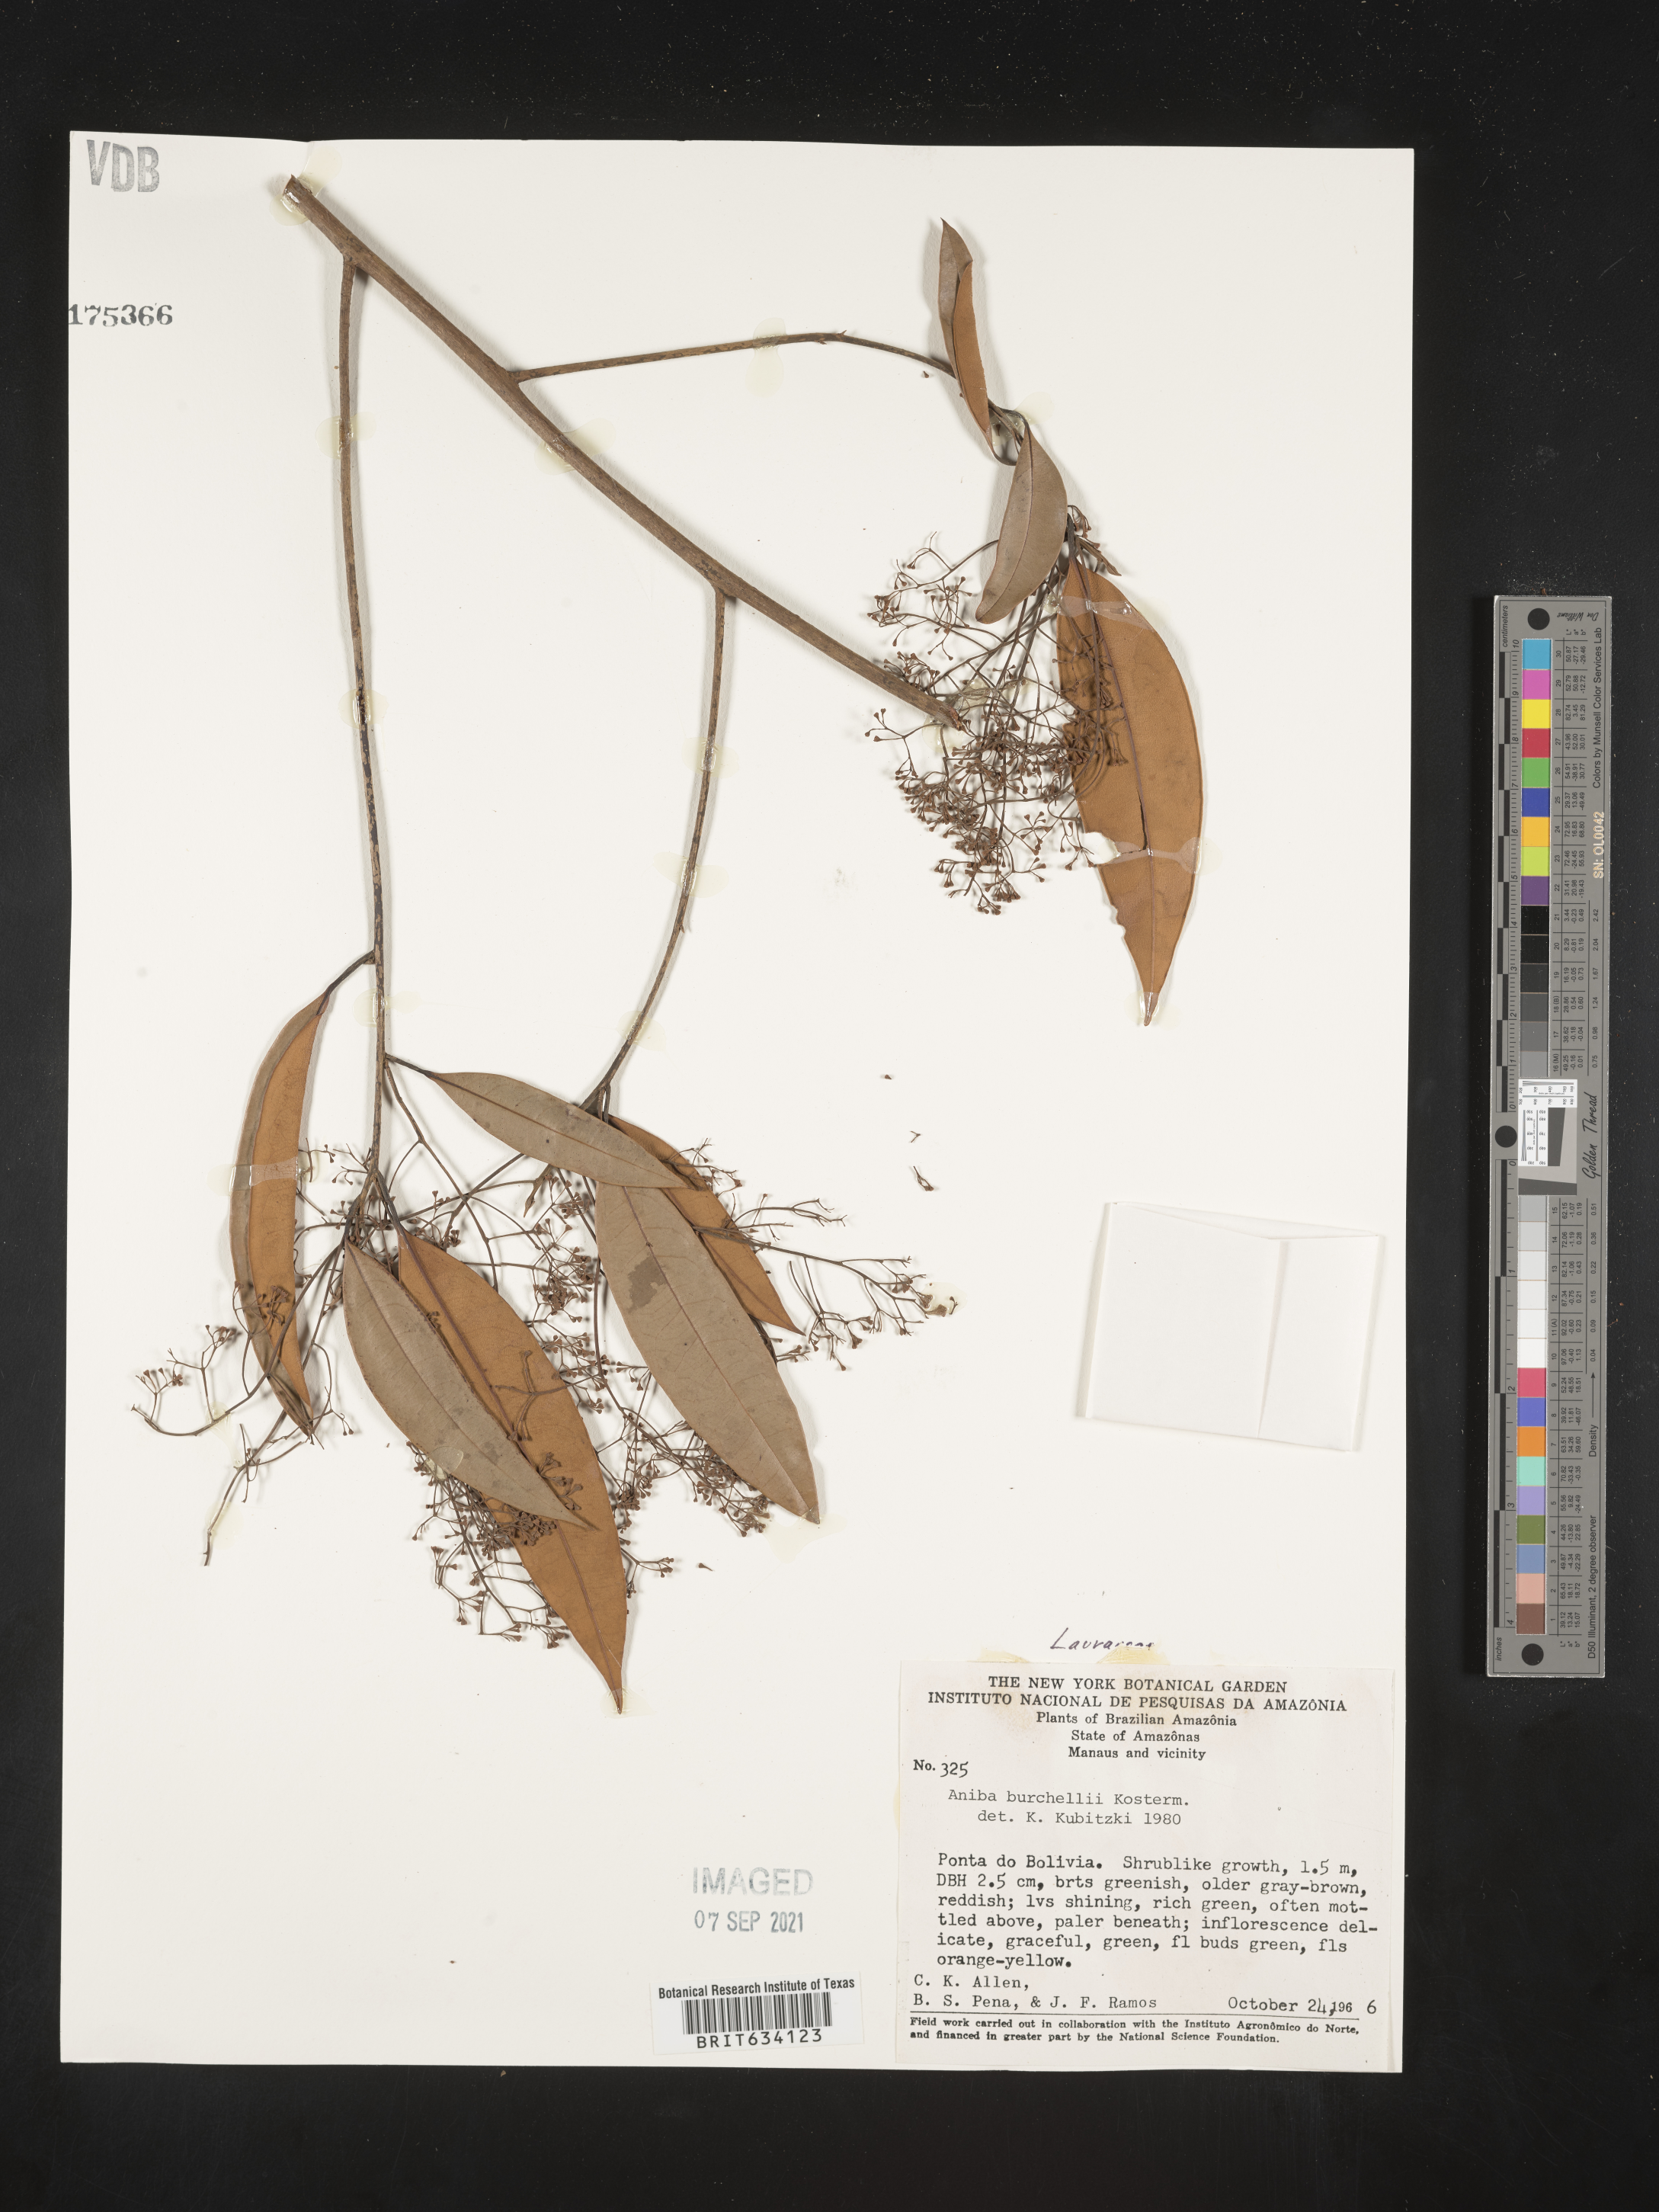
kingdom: Plantae
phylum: Tracheophyta
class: Magnoliopsida
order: Laurales
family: Lauraceae
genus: Aniba
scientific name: Aniba
